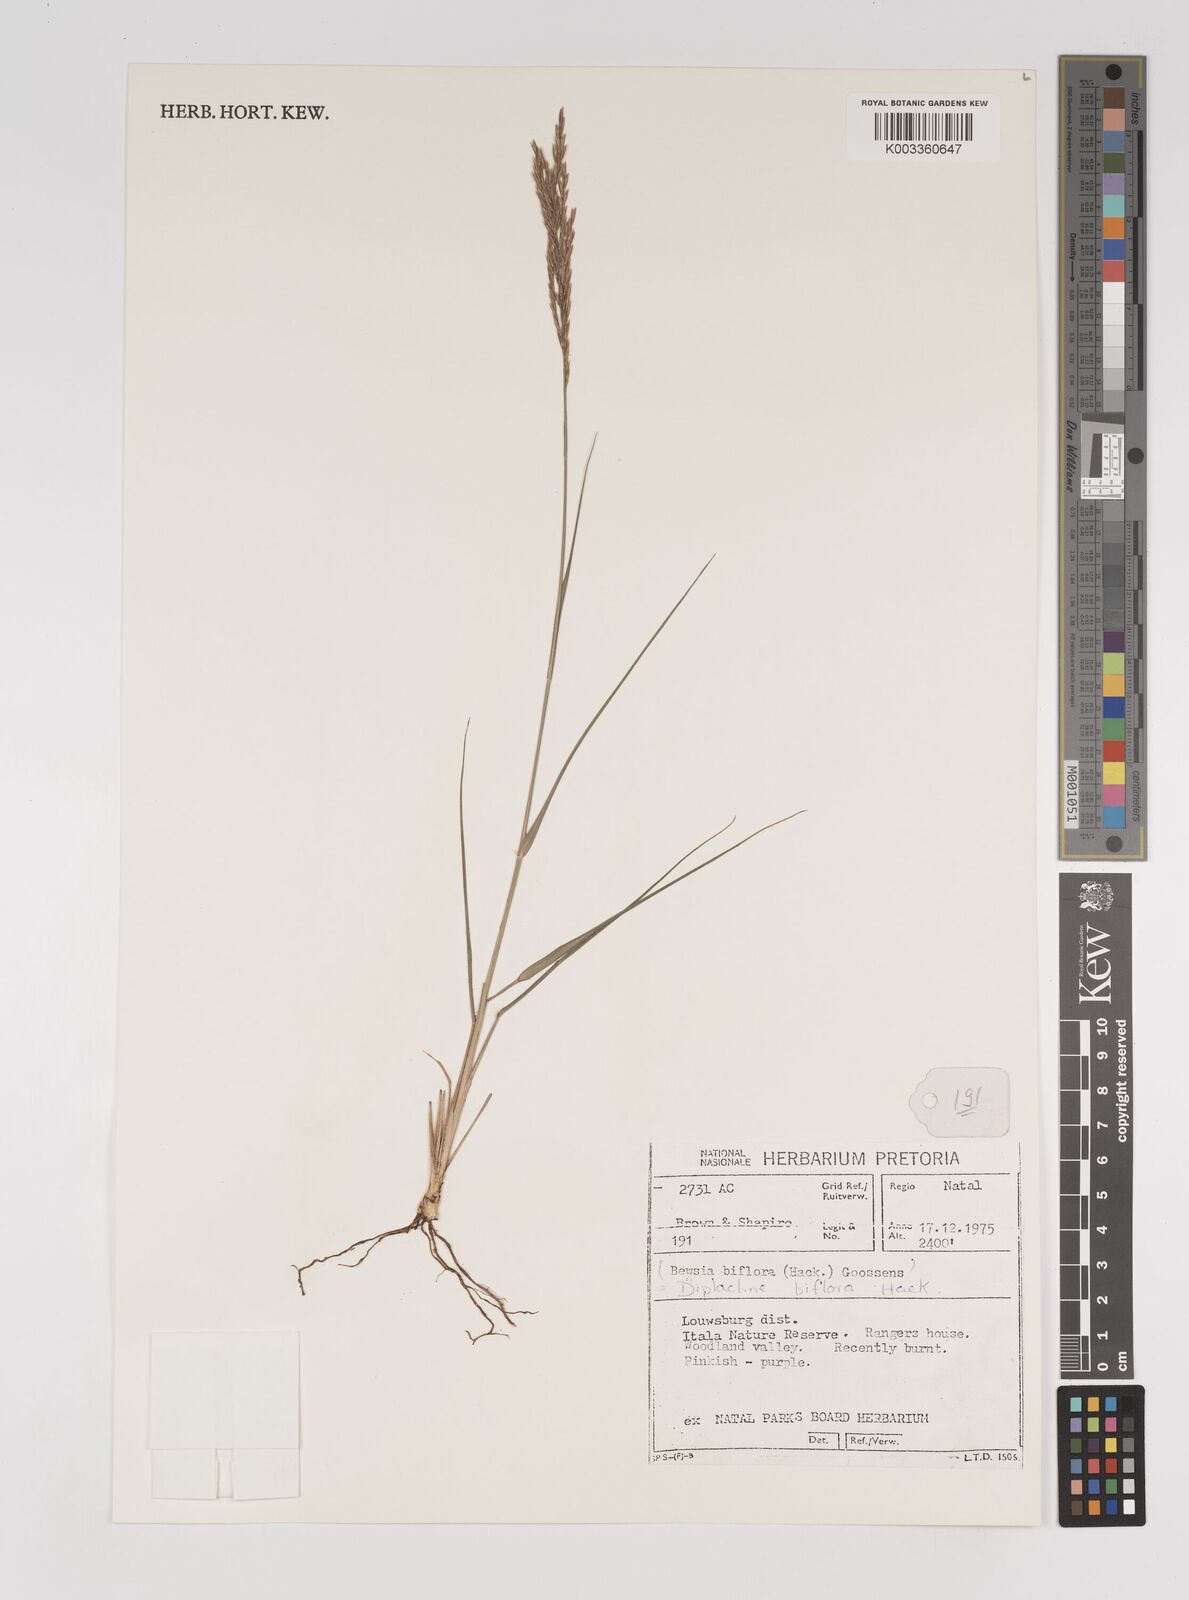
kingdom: Plantae
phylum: Tracheophyta
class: Liliopsida
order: Poales
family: Poaceae
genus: Bewsia
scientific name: Bewsia biflora
